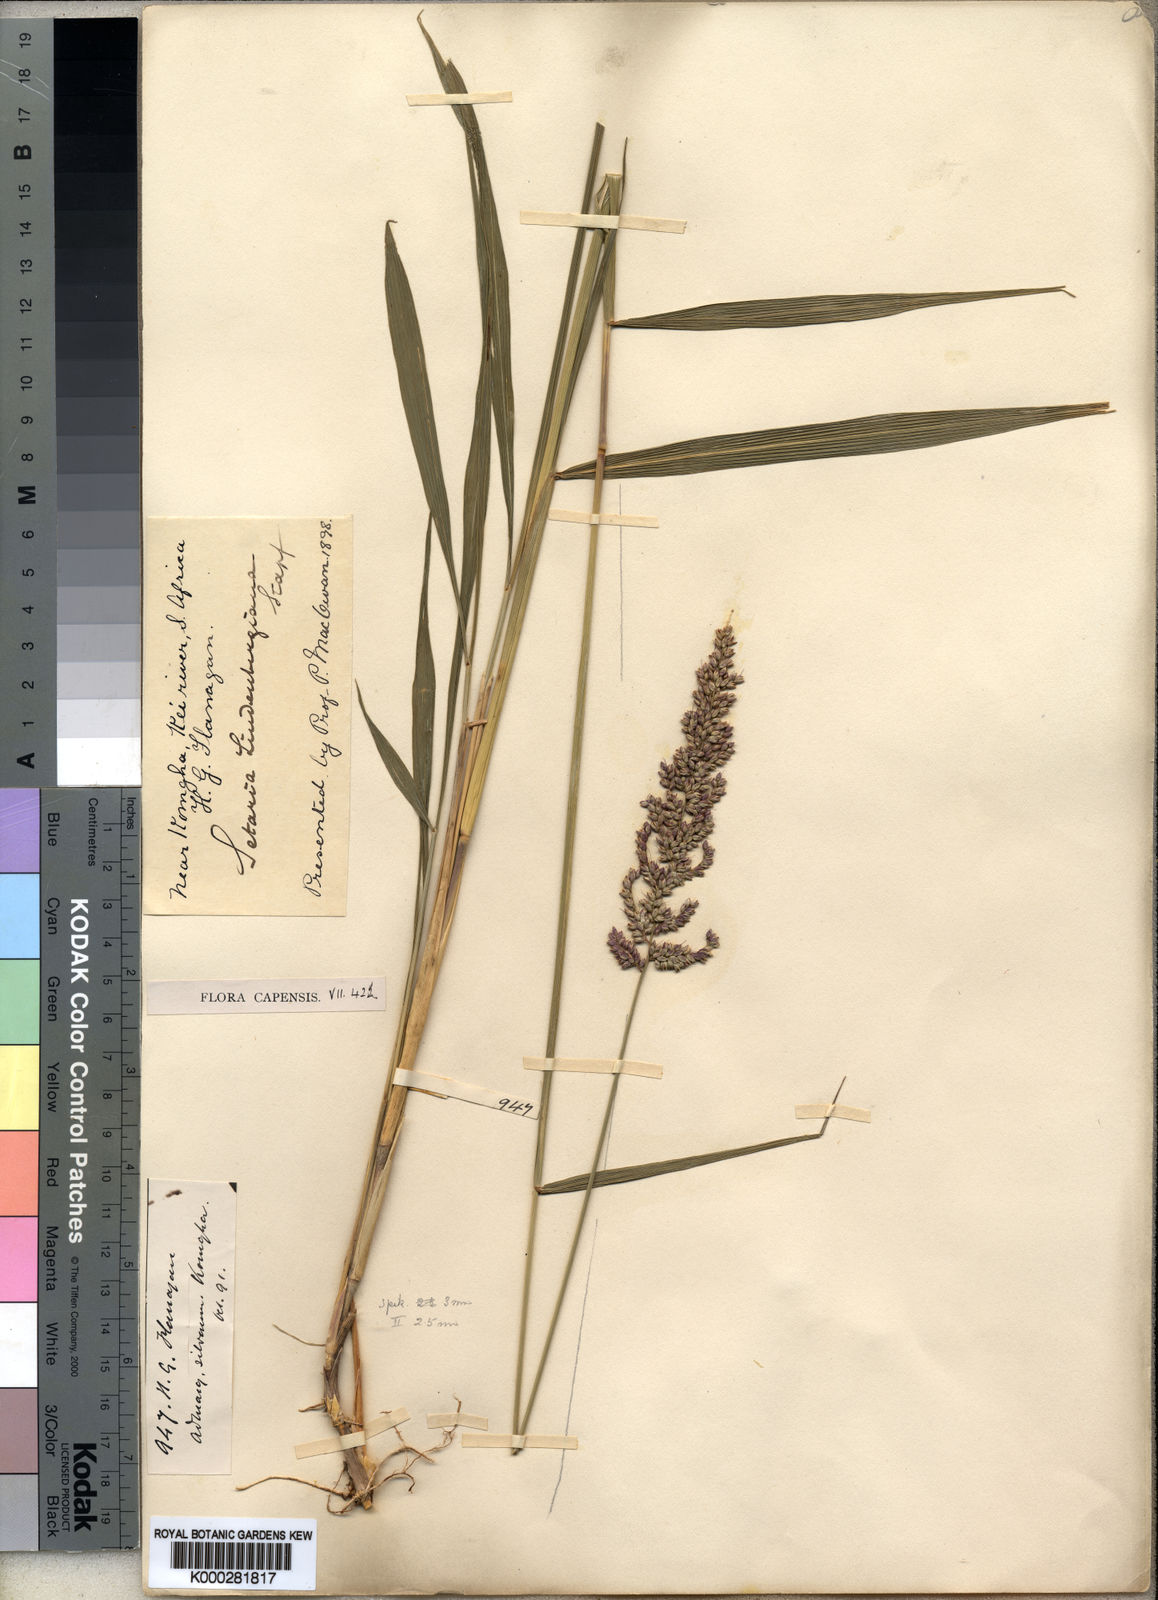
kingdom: Plantae
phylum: Tracheophyta
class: Liliopsida
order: Poales
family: Poaceae
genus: Setaria
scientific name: Setaria lindenbergiana
